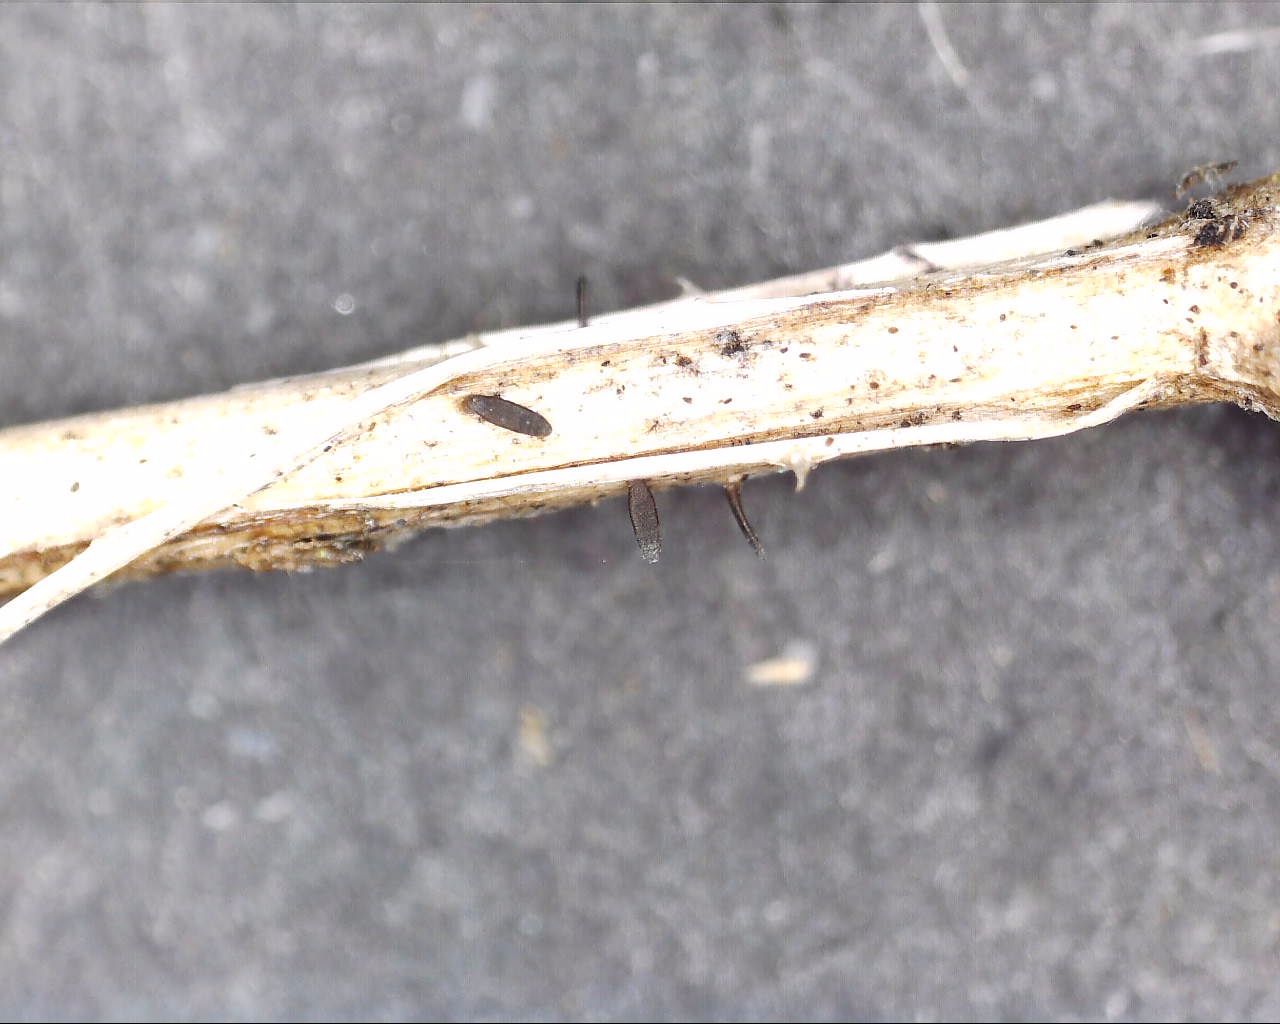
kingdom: Fungi
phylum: Ascomycota
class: Dothideomycetes
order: Acrospermales
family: Acrospermaceae
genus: Acrospermum
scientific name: Acrospermum pallidulum
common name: snerre-stængeltunge
